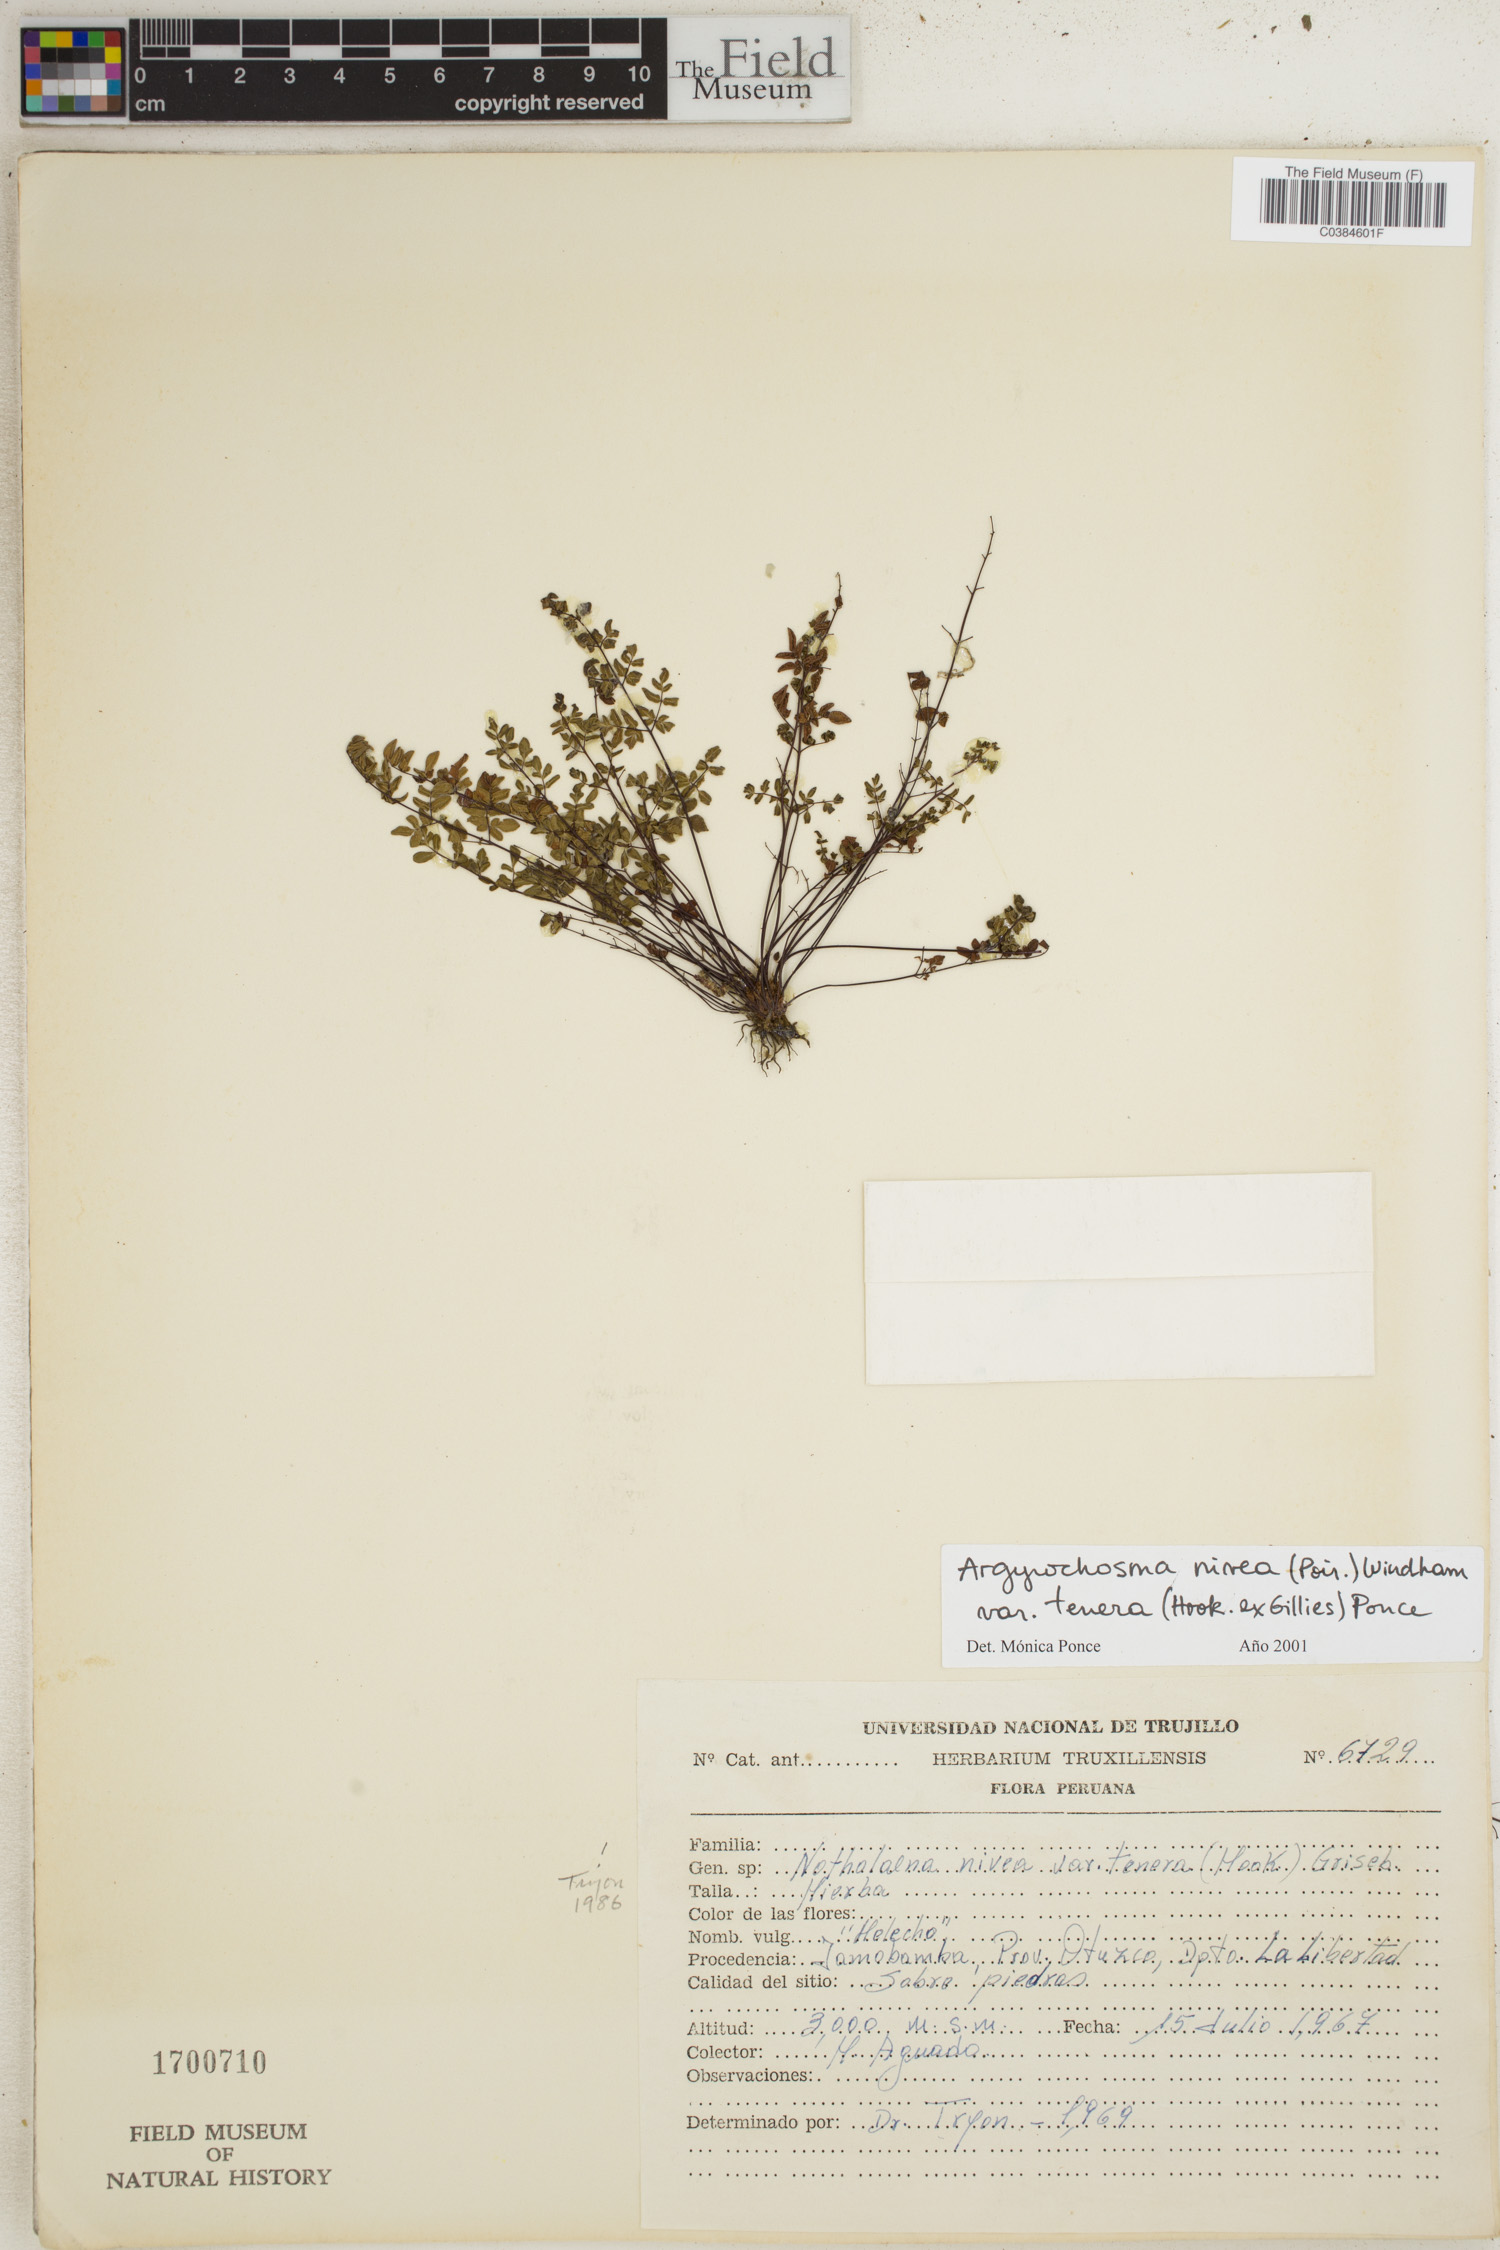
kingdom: Plantae
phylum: Tracheophyta
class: Polypodiopsida
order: Polypodiales
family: Pteridaceae
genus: Argyrochosma
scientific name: Argyrochosma nivea
